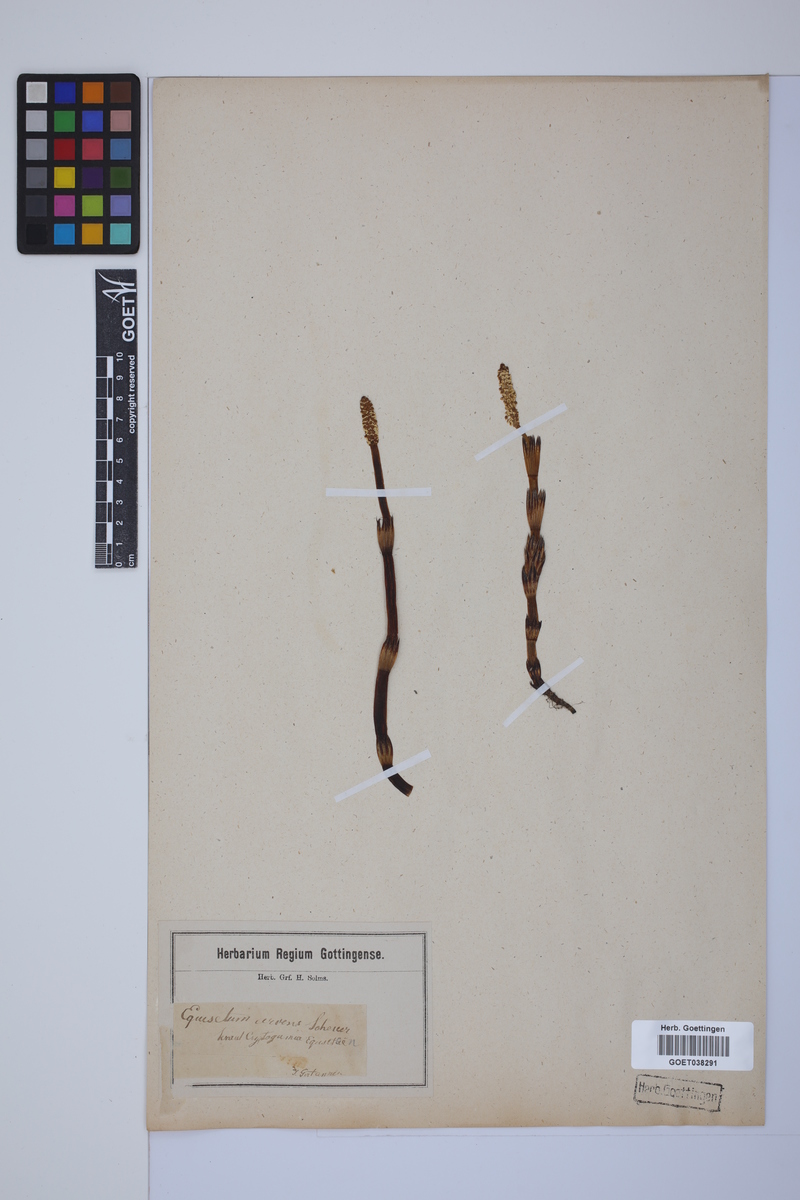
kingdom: Plantae
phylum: Tracheophyta
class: Polypodiopsida
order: Equisetales
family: Equisetaceae
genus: Equisetum
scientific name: Equisetum arvense
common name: Field horsetail
